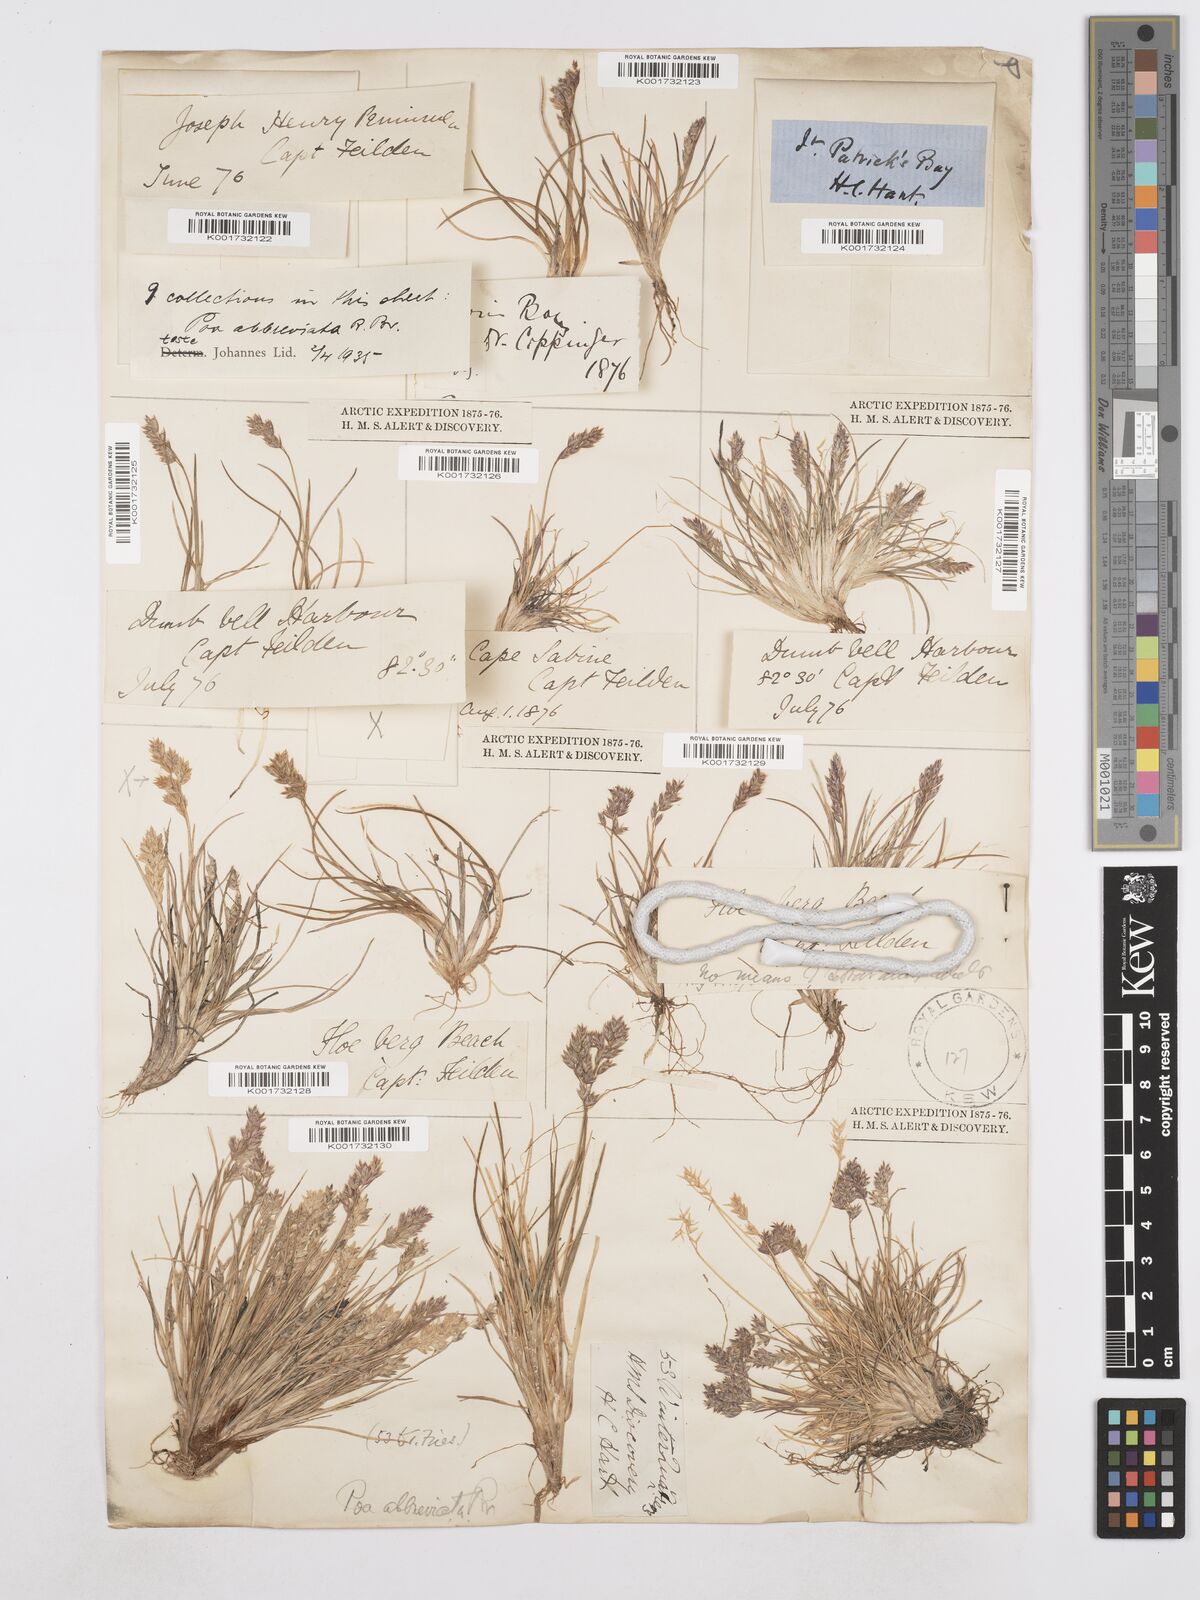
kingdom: Plantae
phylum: Tracheophyta
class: Liliopsida
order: Poales
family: Poaceae
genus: Poa
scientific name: Poa abbreviata
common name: Abbreviated bluegrass
